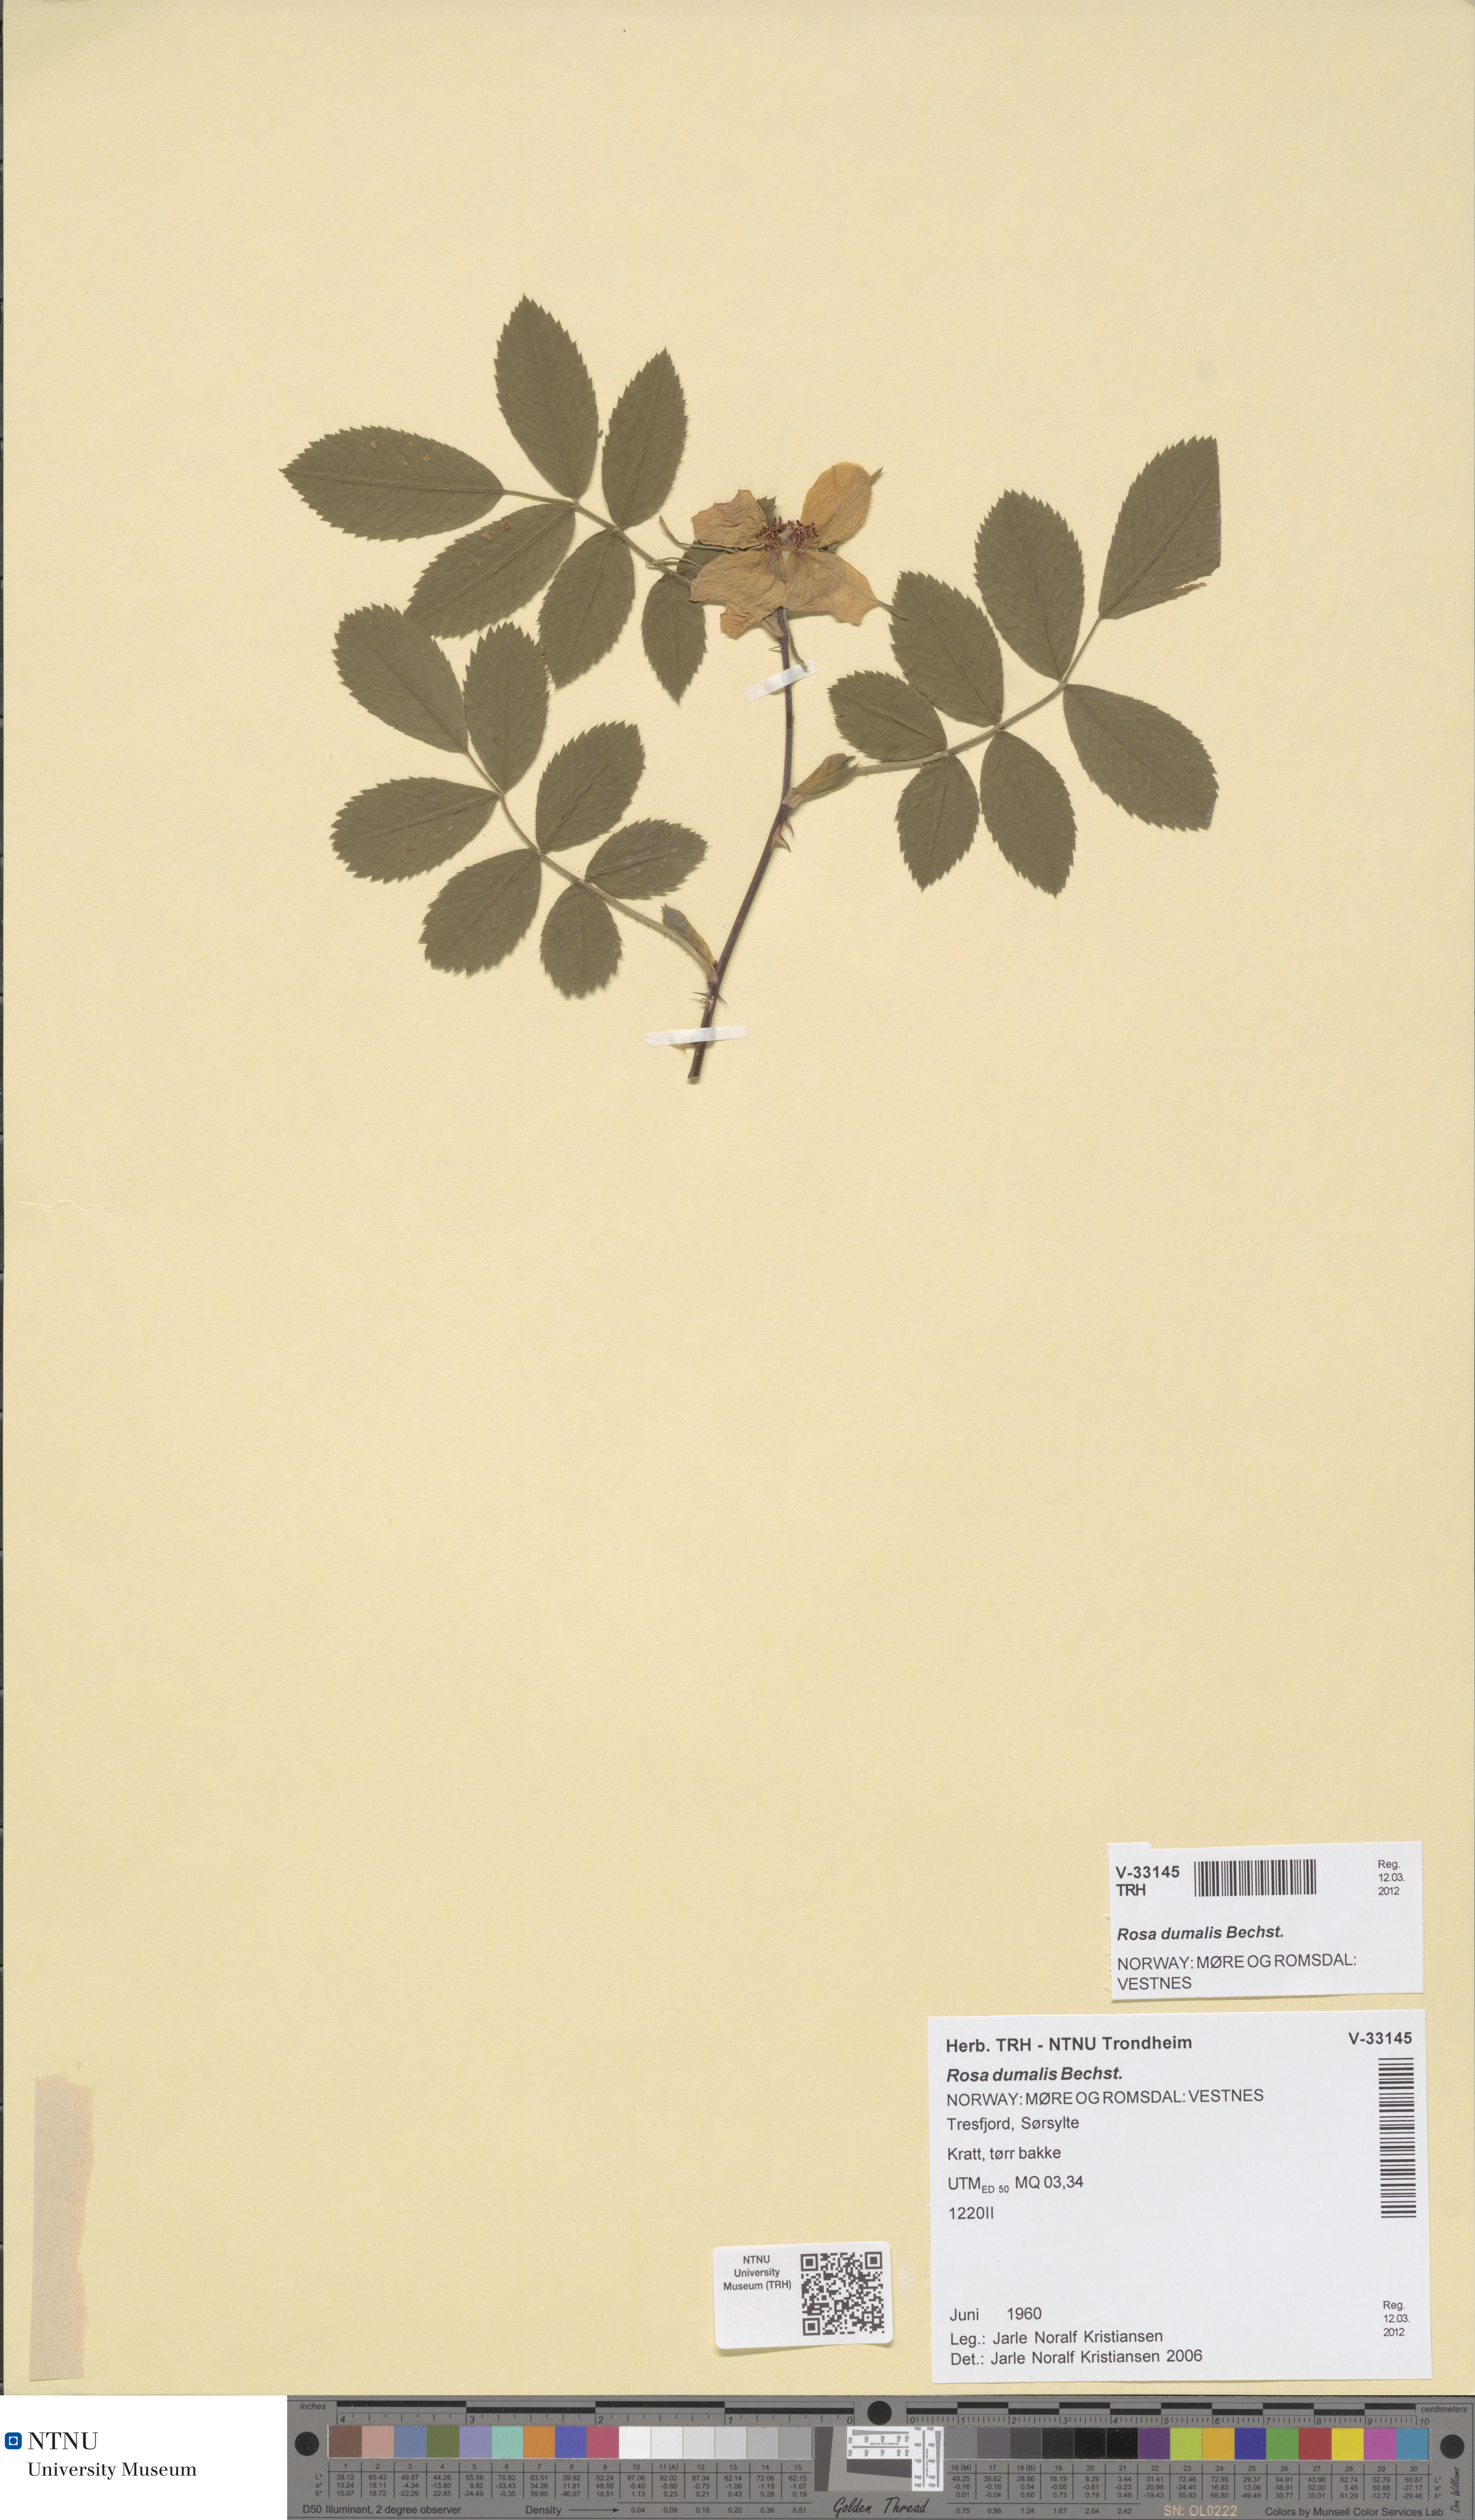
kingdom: Plantae
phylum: Tracheophyta
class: Magnoliopsida
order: Rosales
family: Rosaceae
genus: Rosa
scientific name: Rosa dumalis
